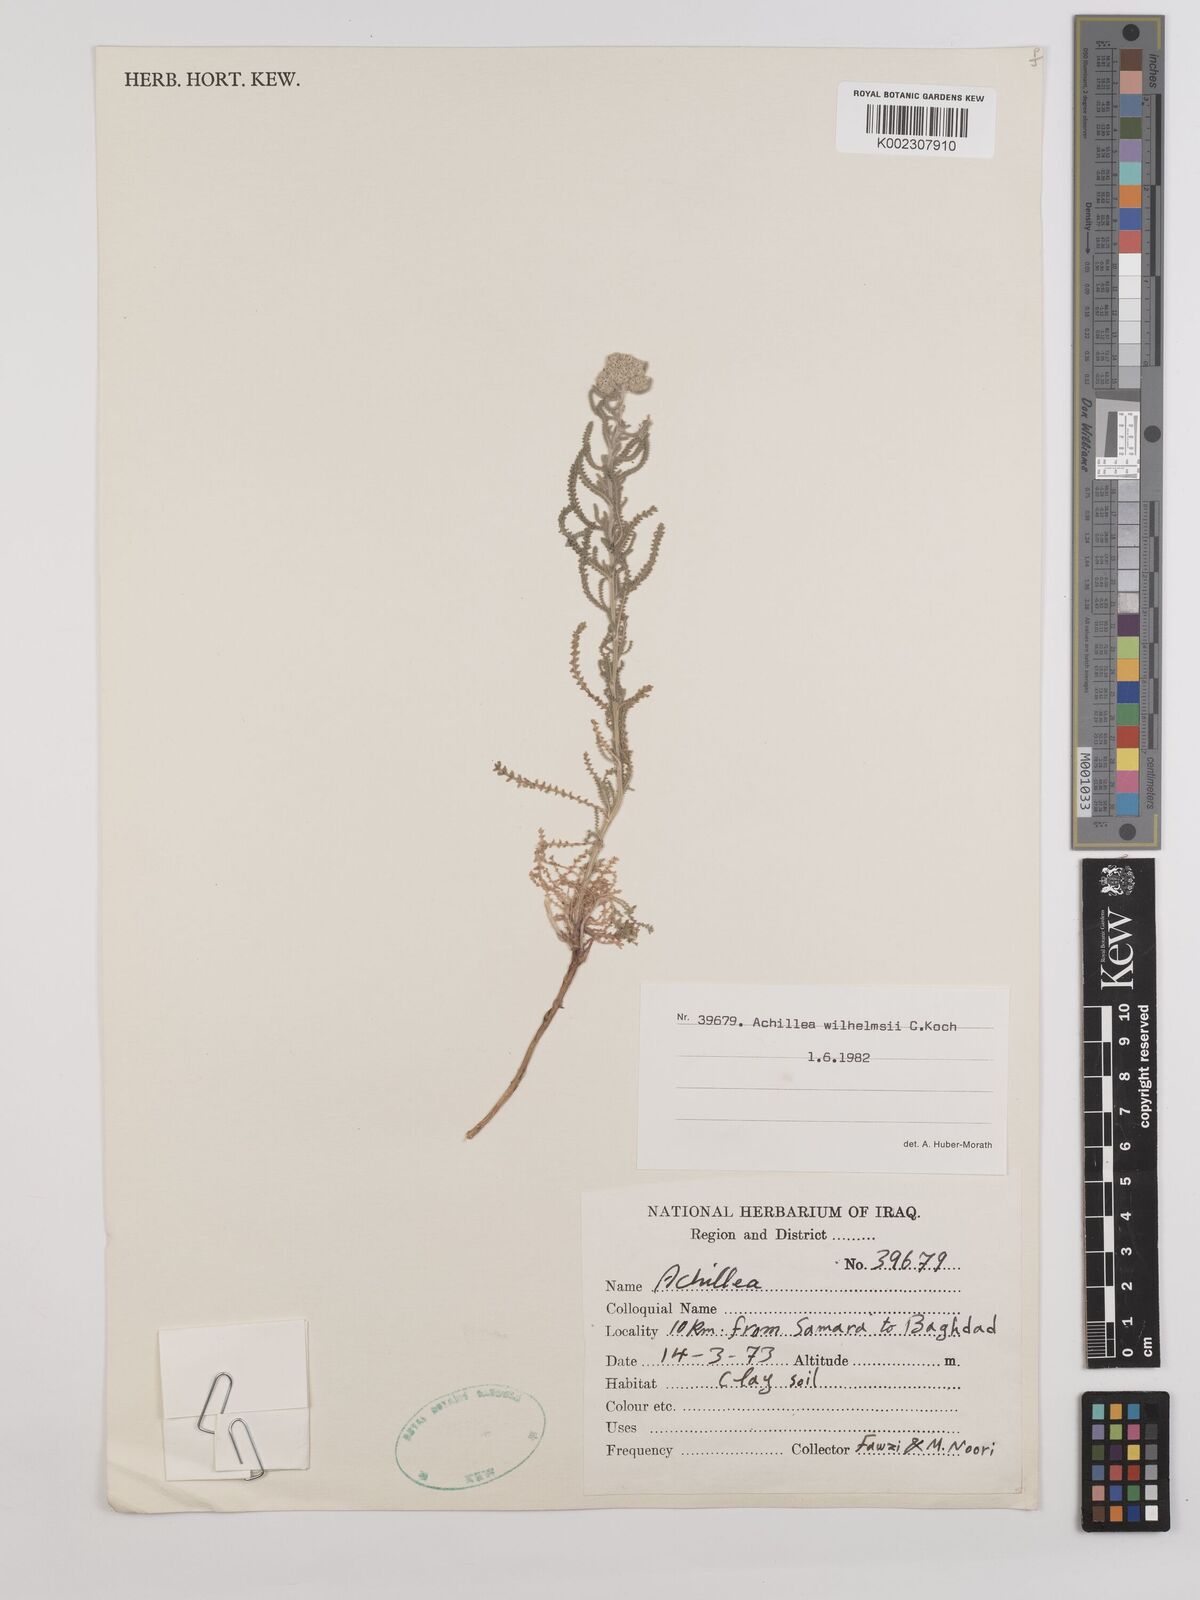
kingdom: Plantae
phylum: Tracheophyta
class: Magnoliopsida
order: Asterales
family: Asteraceae
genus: Achillea
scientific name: Achillea wilhelmsii
